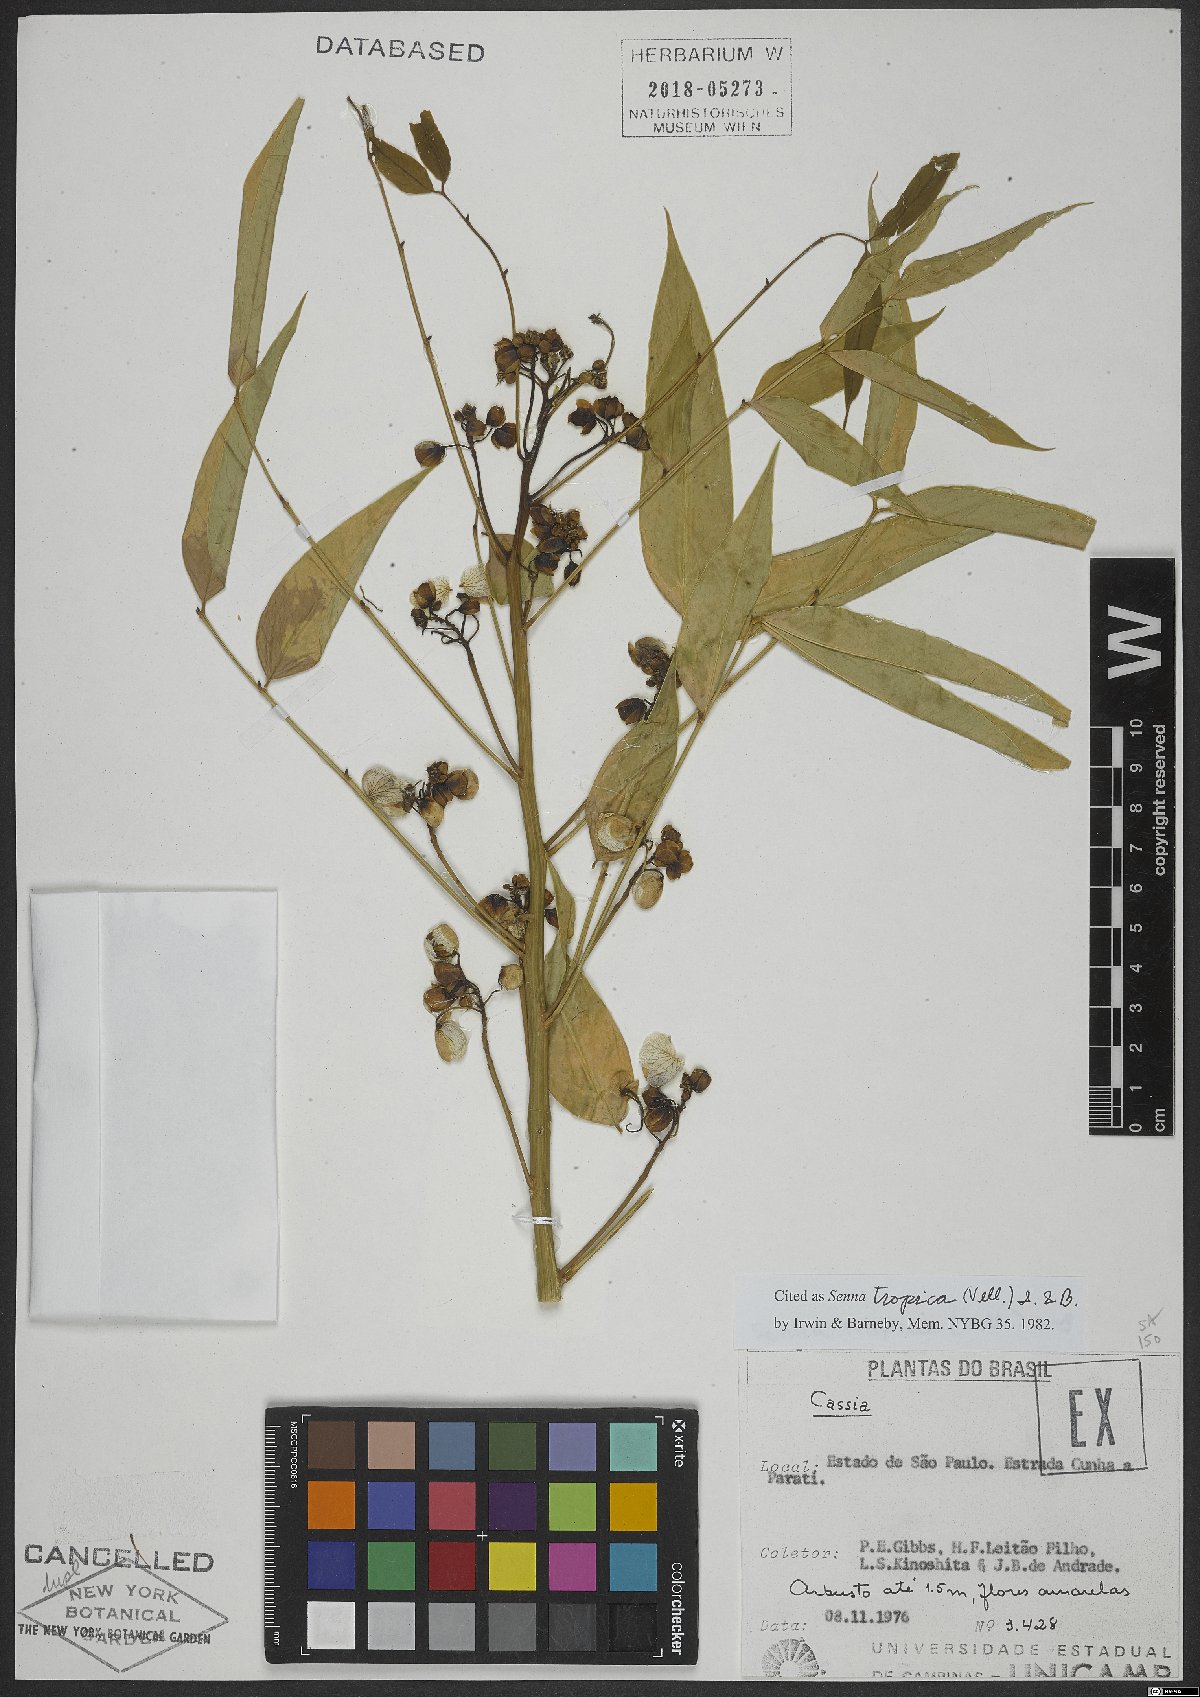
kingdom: Plantae
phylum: Tracheophyta
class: Magnoliopsida
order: Fabales
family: Fabaceae
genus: Senna
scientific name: Senna
